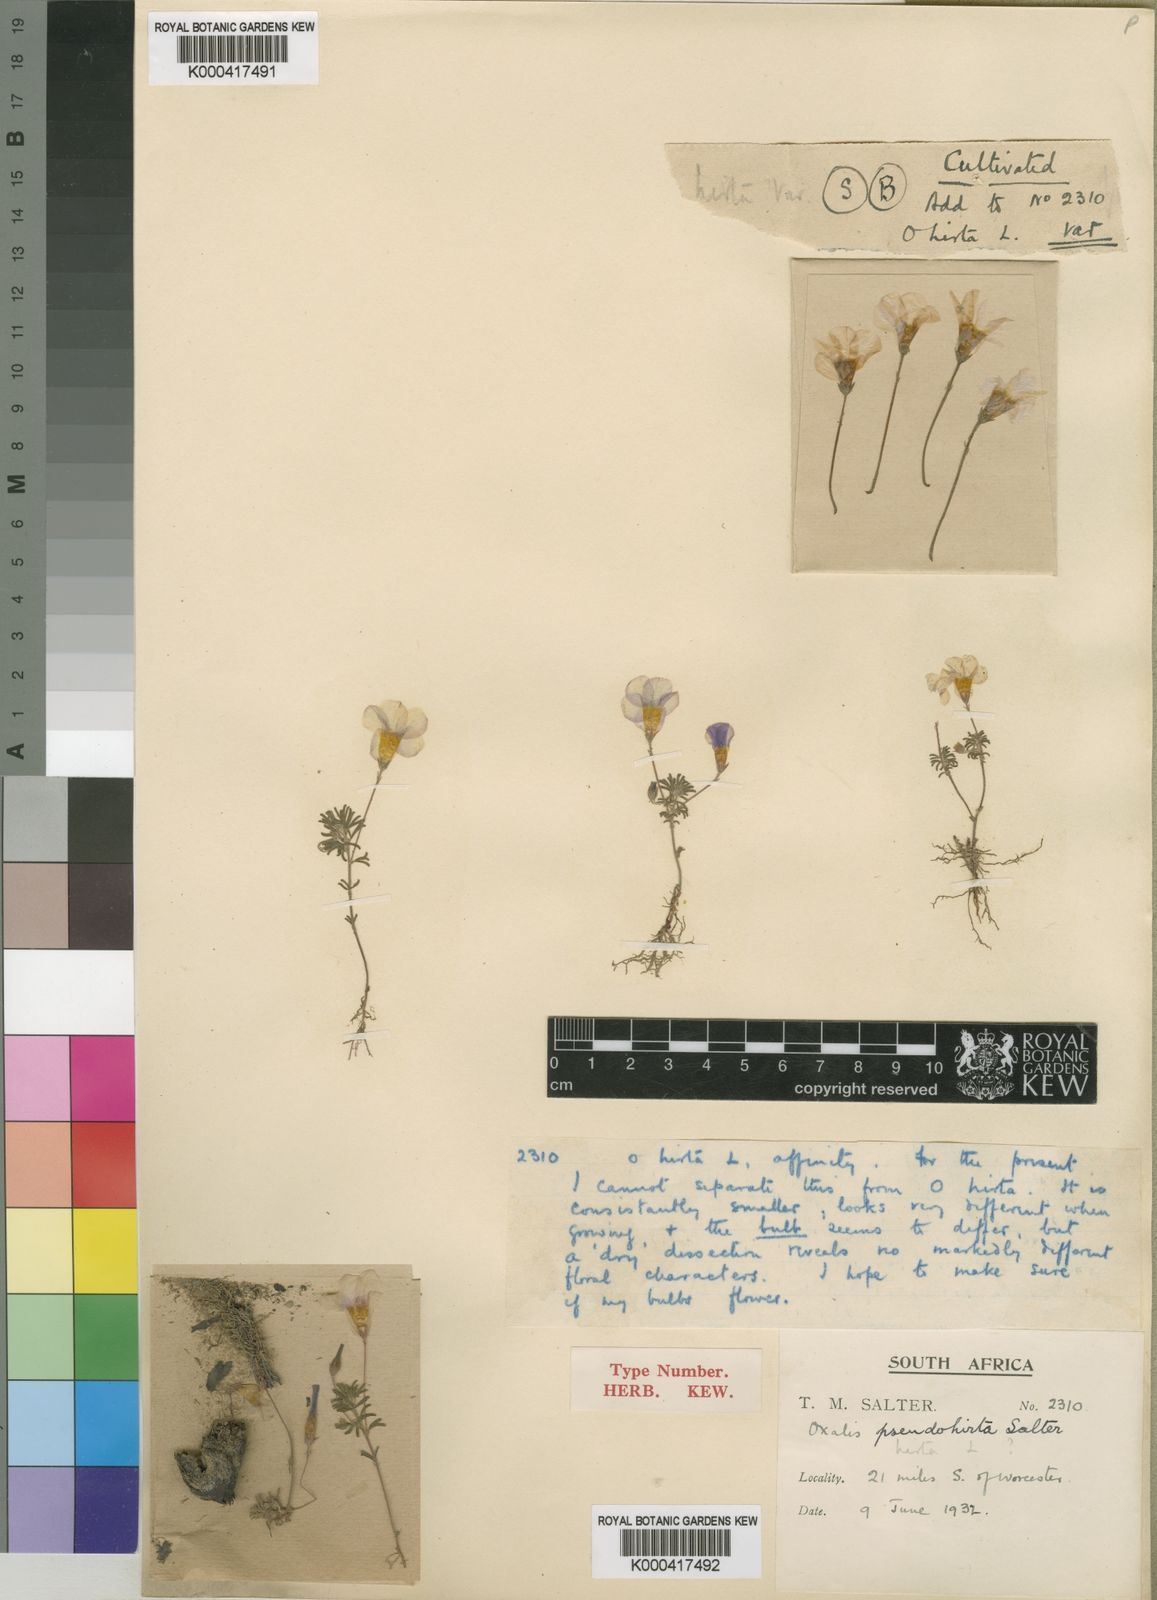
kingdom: Plantae
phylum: Tracheophyta
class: Magnoliopsida
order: Oxalidales
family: Oxalidaceae
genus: Oxalis
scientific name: Oxalis pseudohirta
